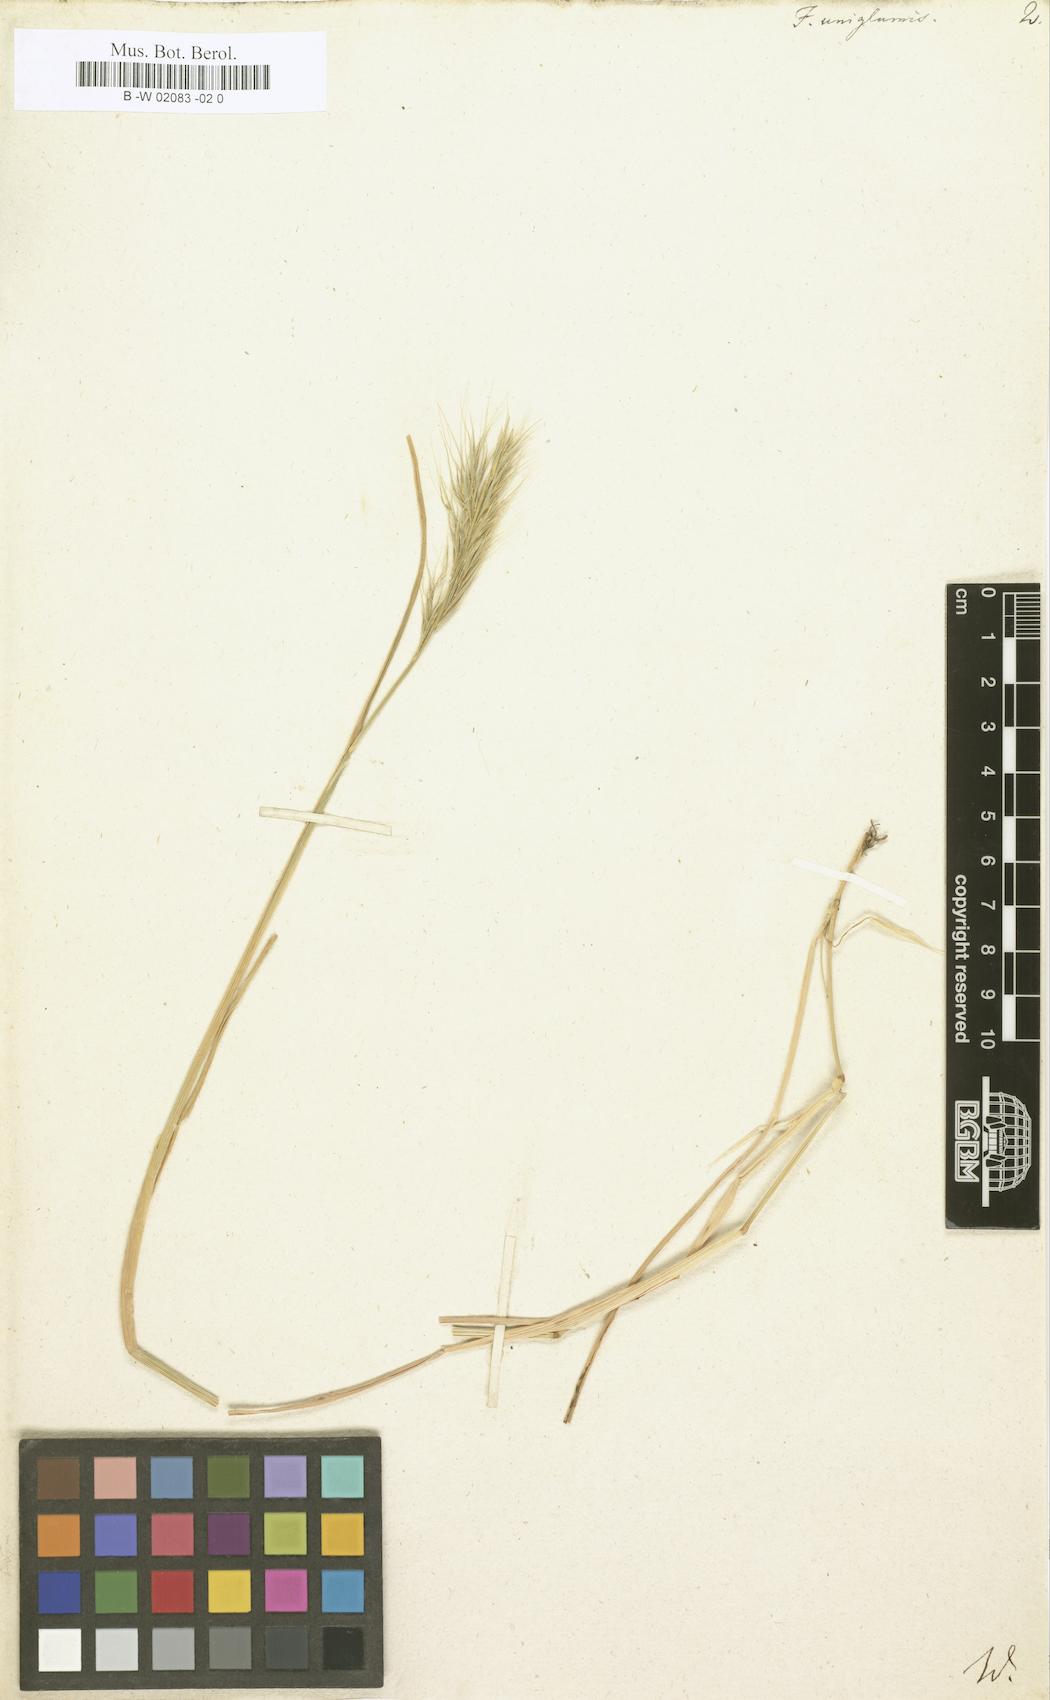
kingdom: Plantae
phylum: Tracheophyta
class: Liliopsida
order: Poales
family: Poaceae
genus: Festuca
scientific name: Festuca
